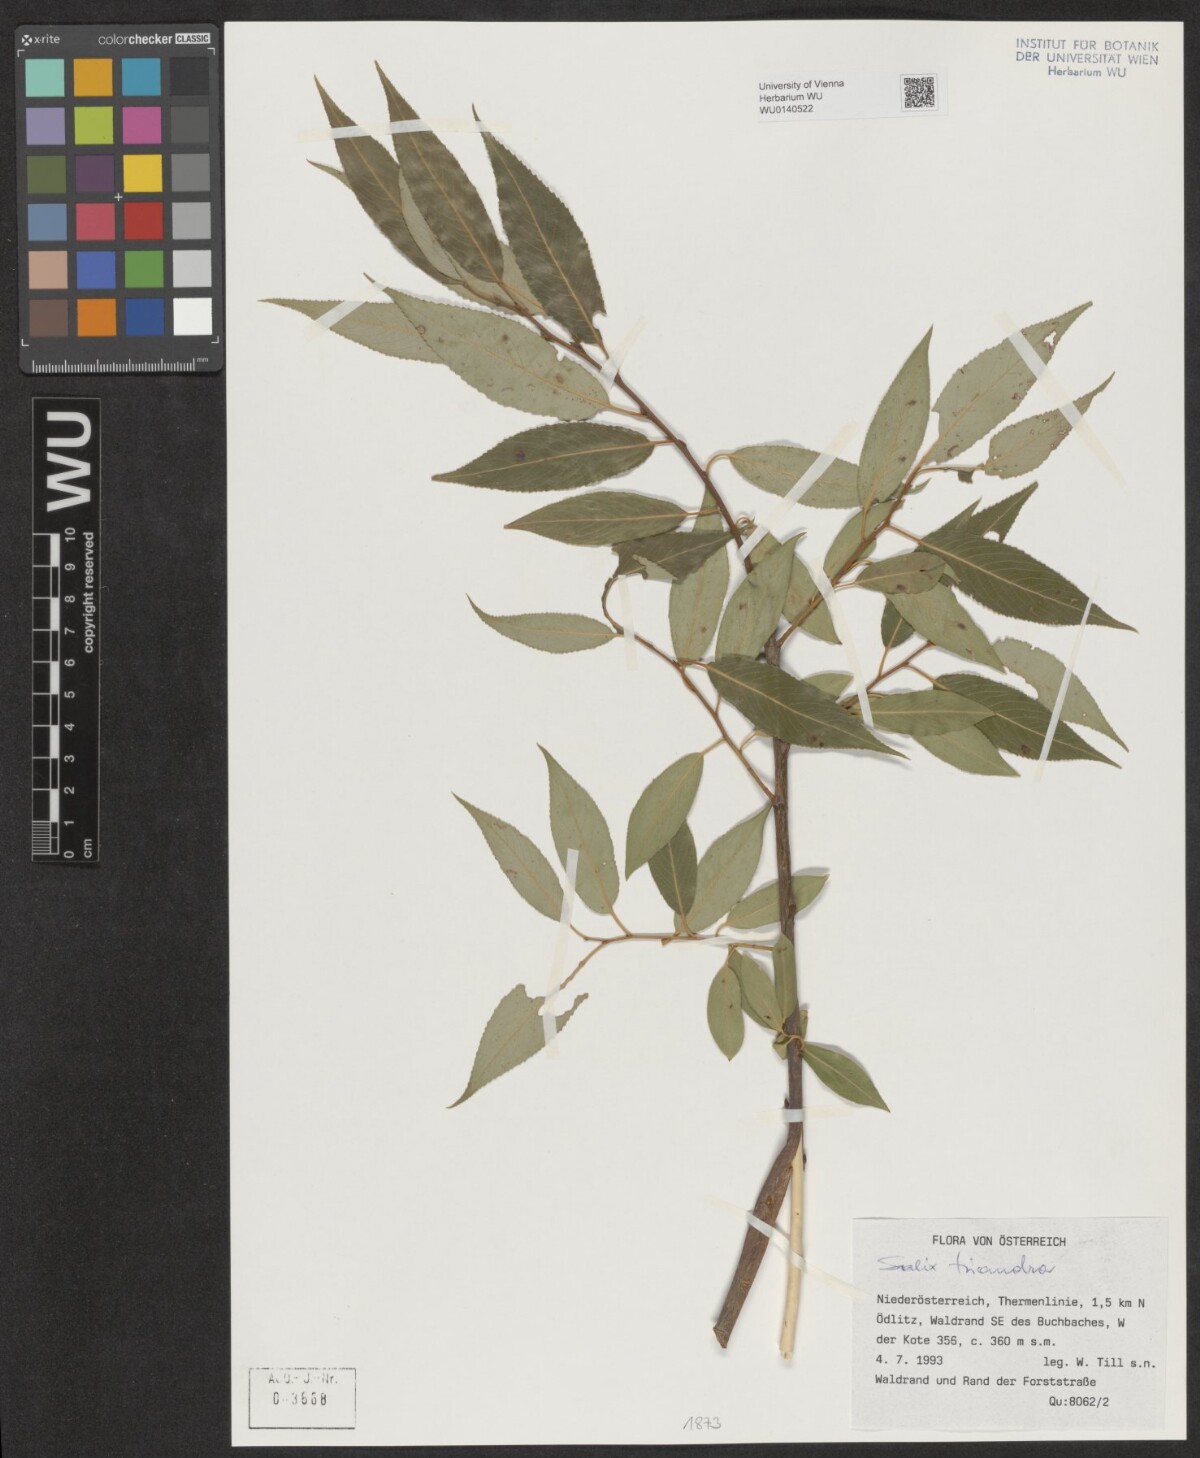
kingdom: Plantae
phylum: Tracheophyta
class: Magnoliopsida
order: Malpighiales
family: Salicaceae
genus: Salix
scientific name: Salix triandra
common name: Almond willow
